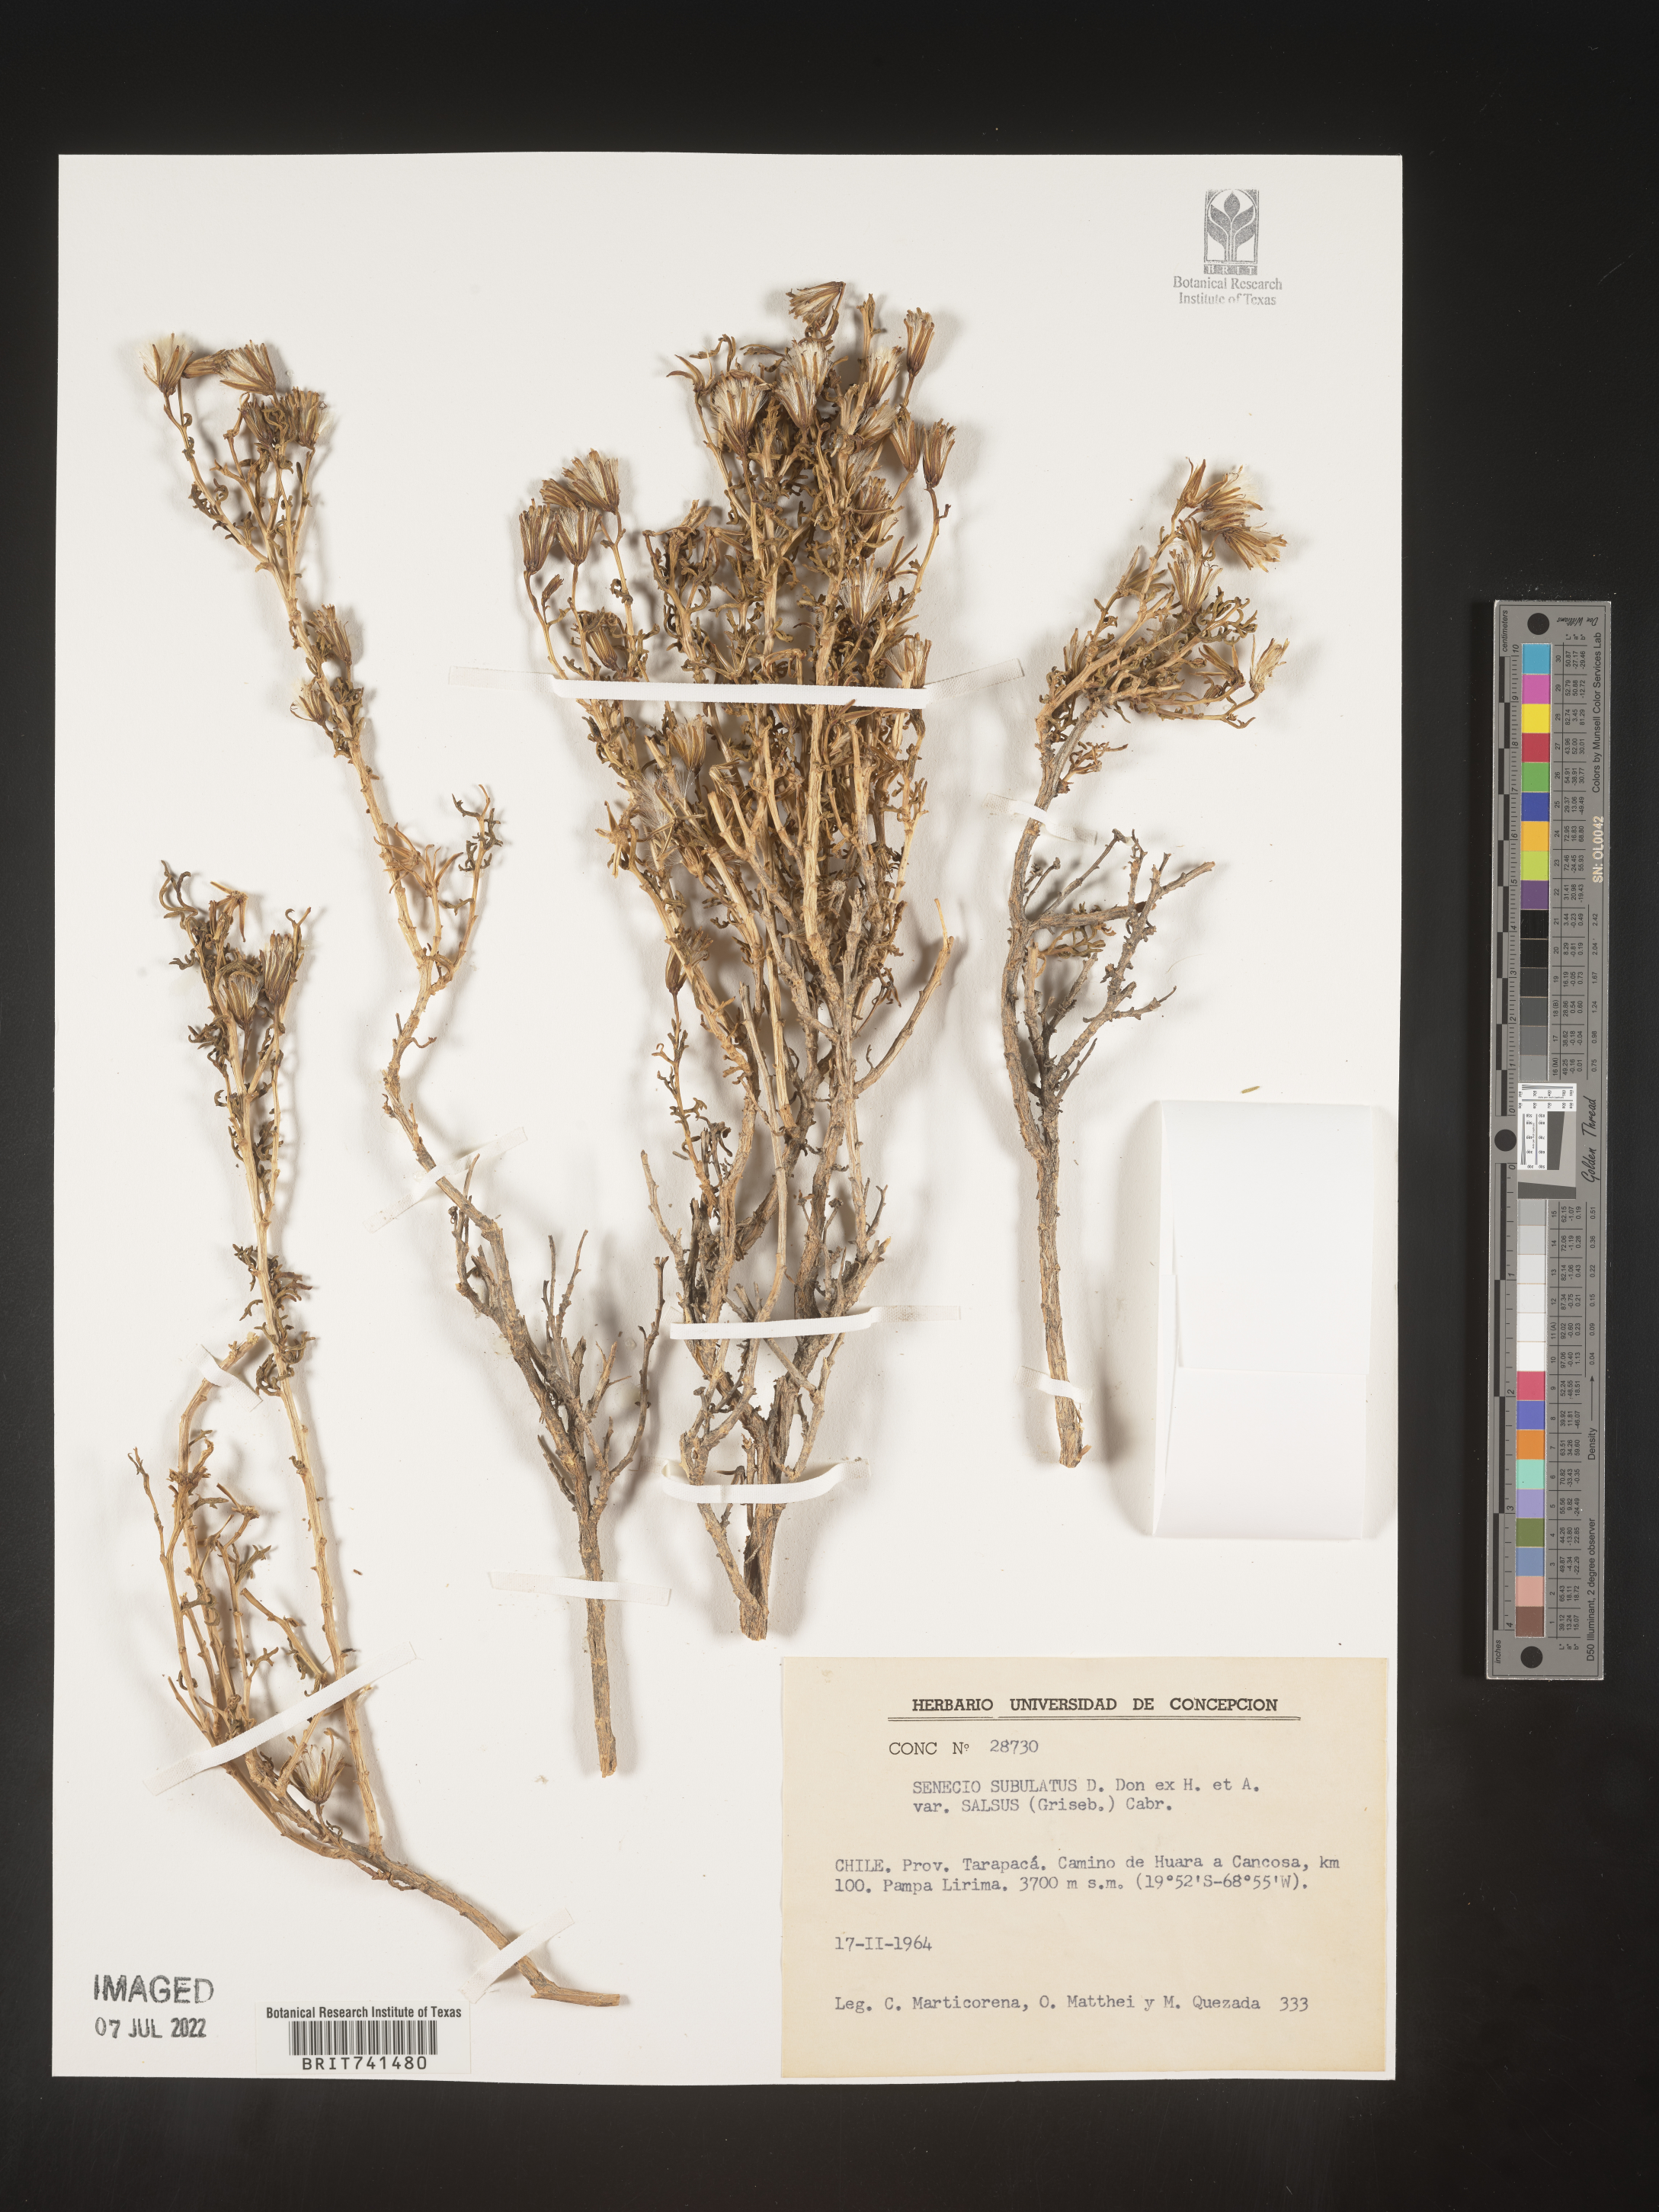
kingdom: Plantae
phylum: Tracheophyta
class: Magnoliopsida
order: Asterales
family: Asteraceae
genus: Senecio
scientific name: Senecio
